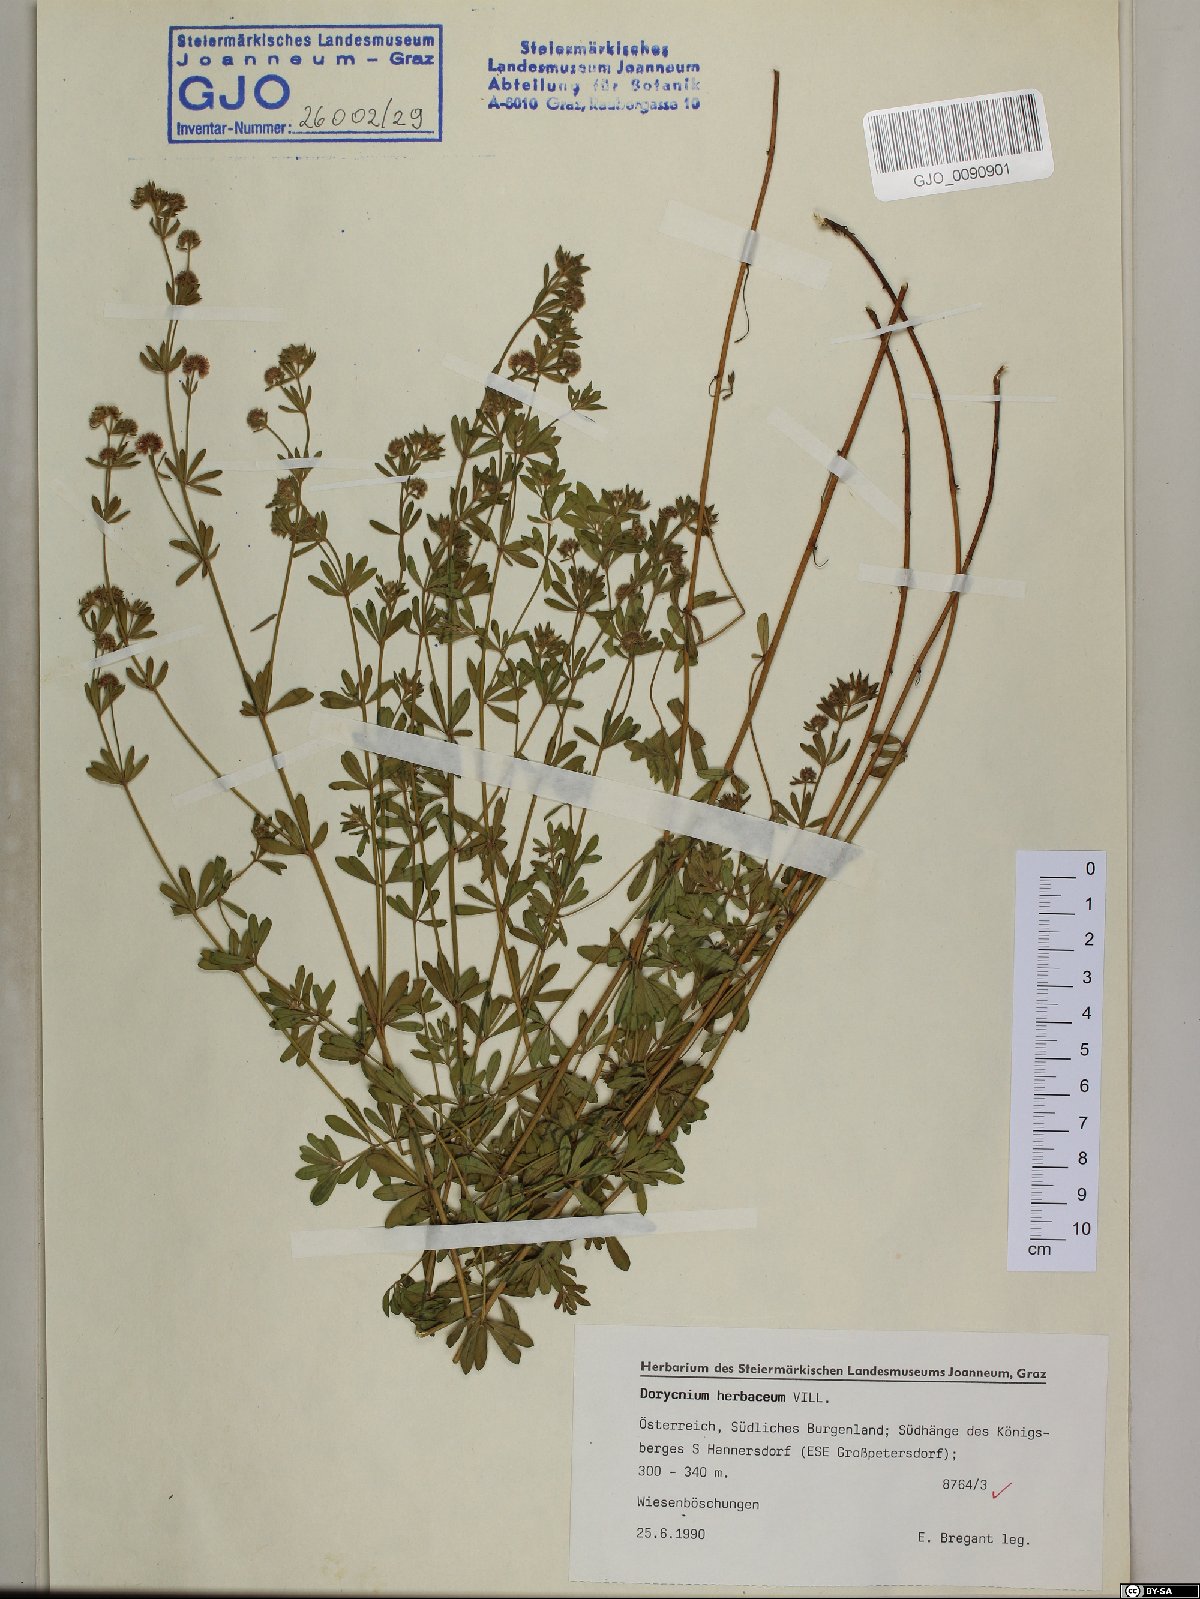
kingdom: Plantae
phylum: Tracheophyta
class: Magnoliopsida
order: Fabales
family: Fabaceae
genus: Lotus
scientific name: Lotus herbaceus
